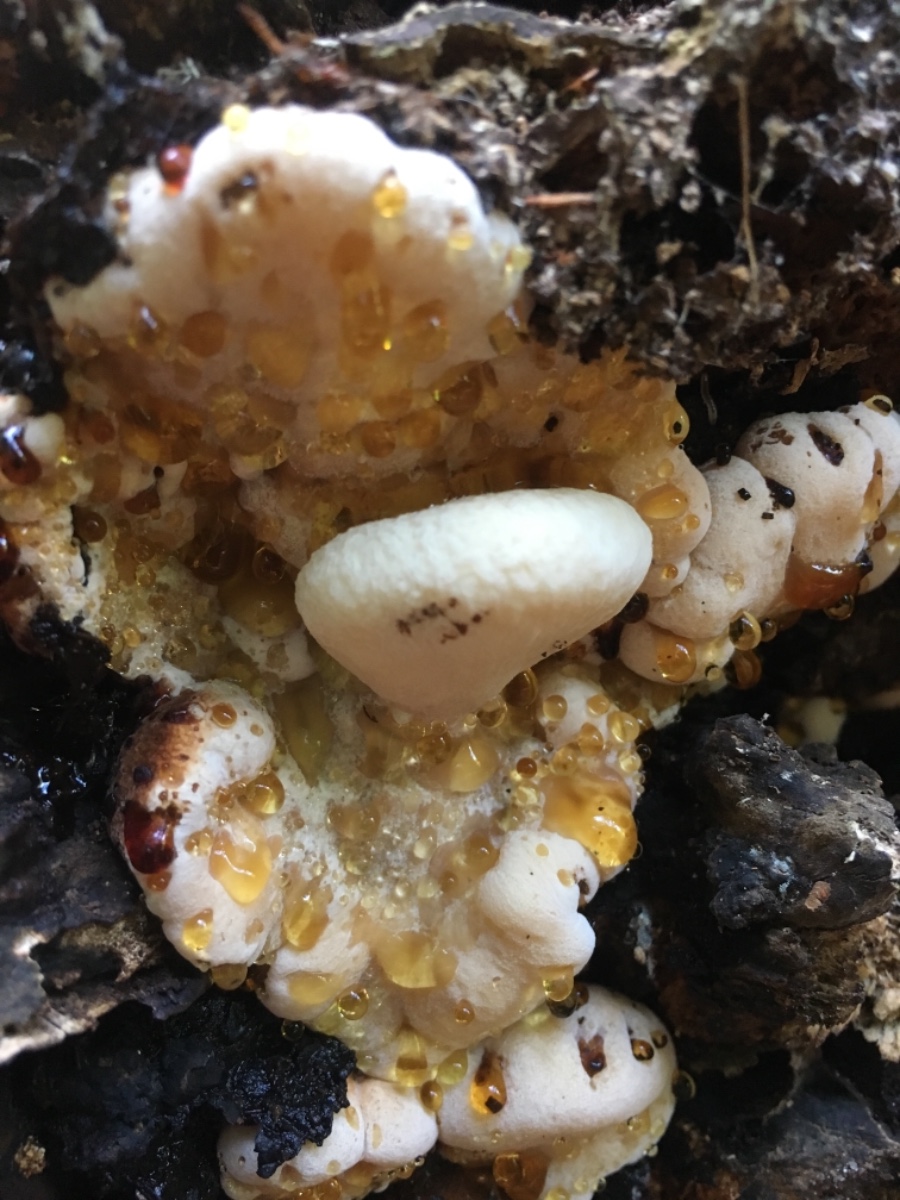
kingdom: Fungi
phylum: Basidiomycota
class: Agaricomycetes
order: Polyporales
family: Ischnodermataceae
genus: Ischnoderma
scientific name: Ischnoderma resinosum
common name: løv-tjæreporesvamp
